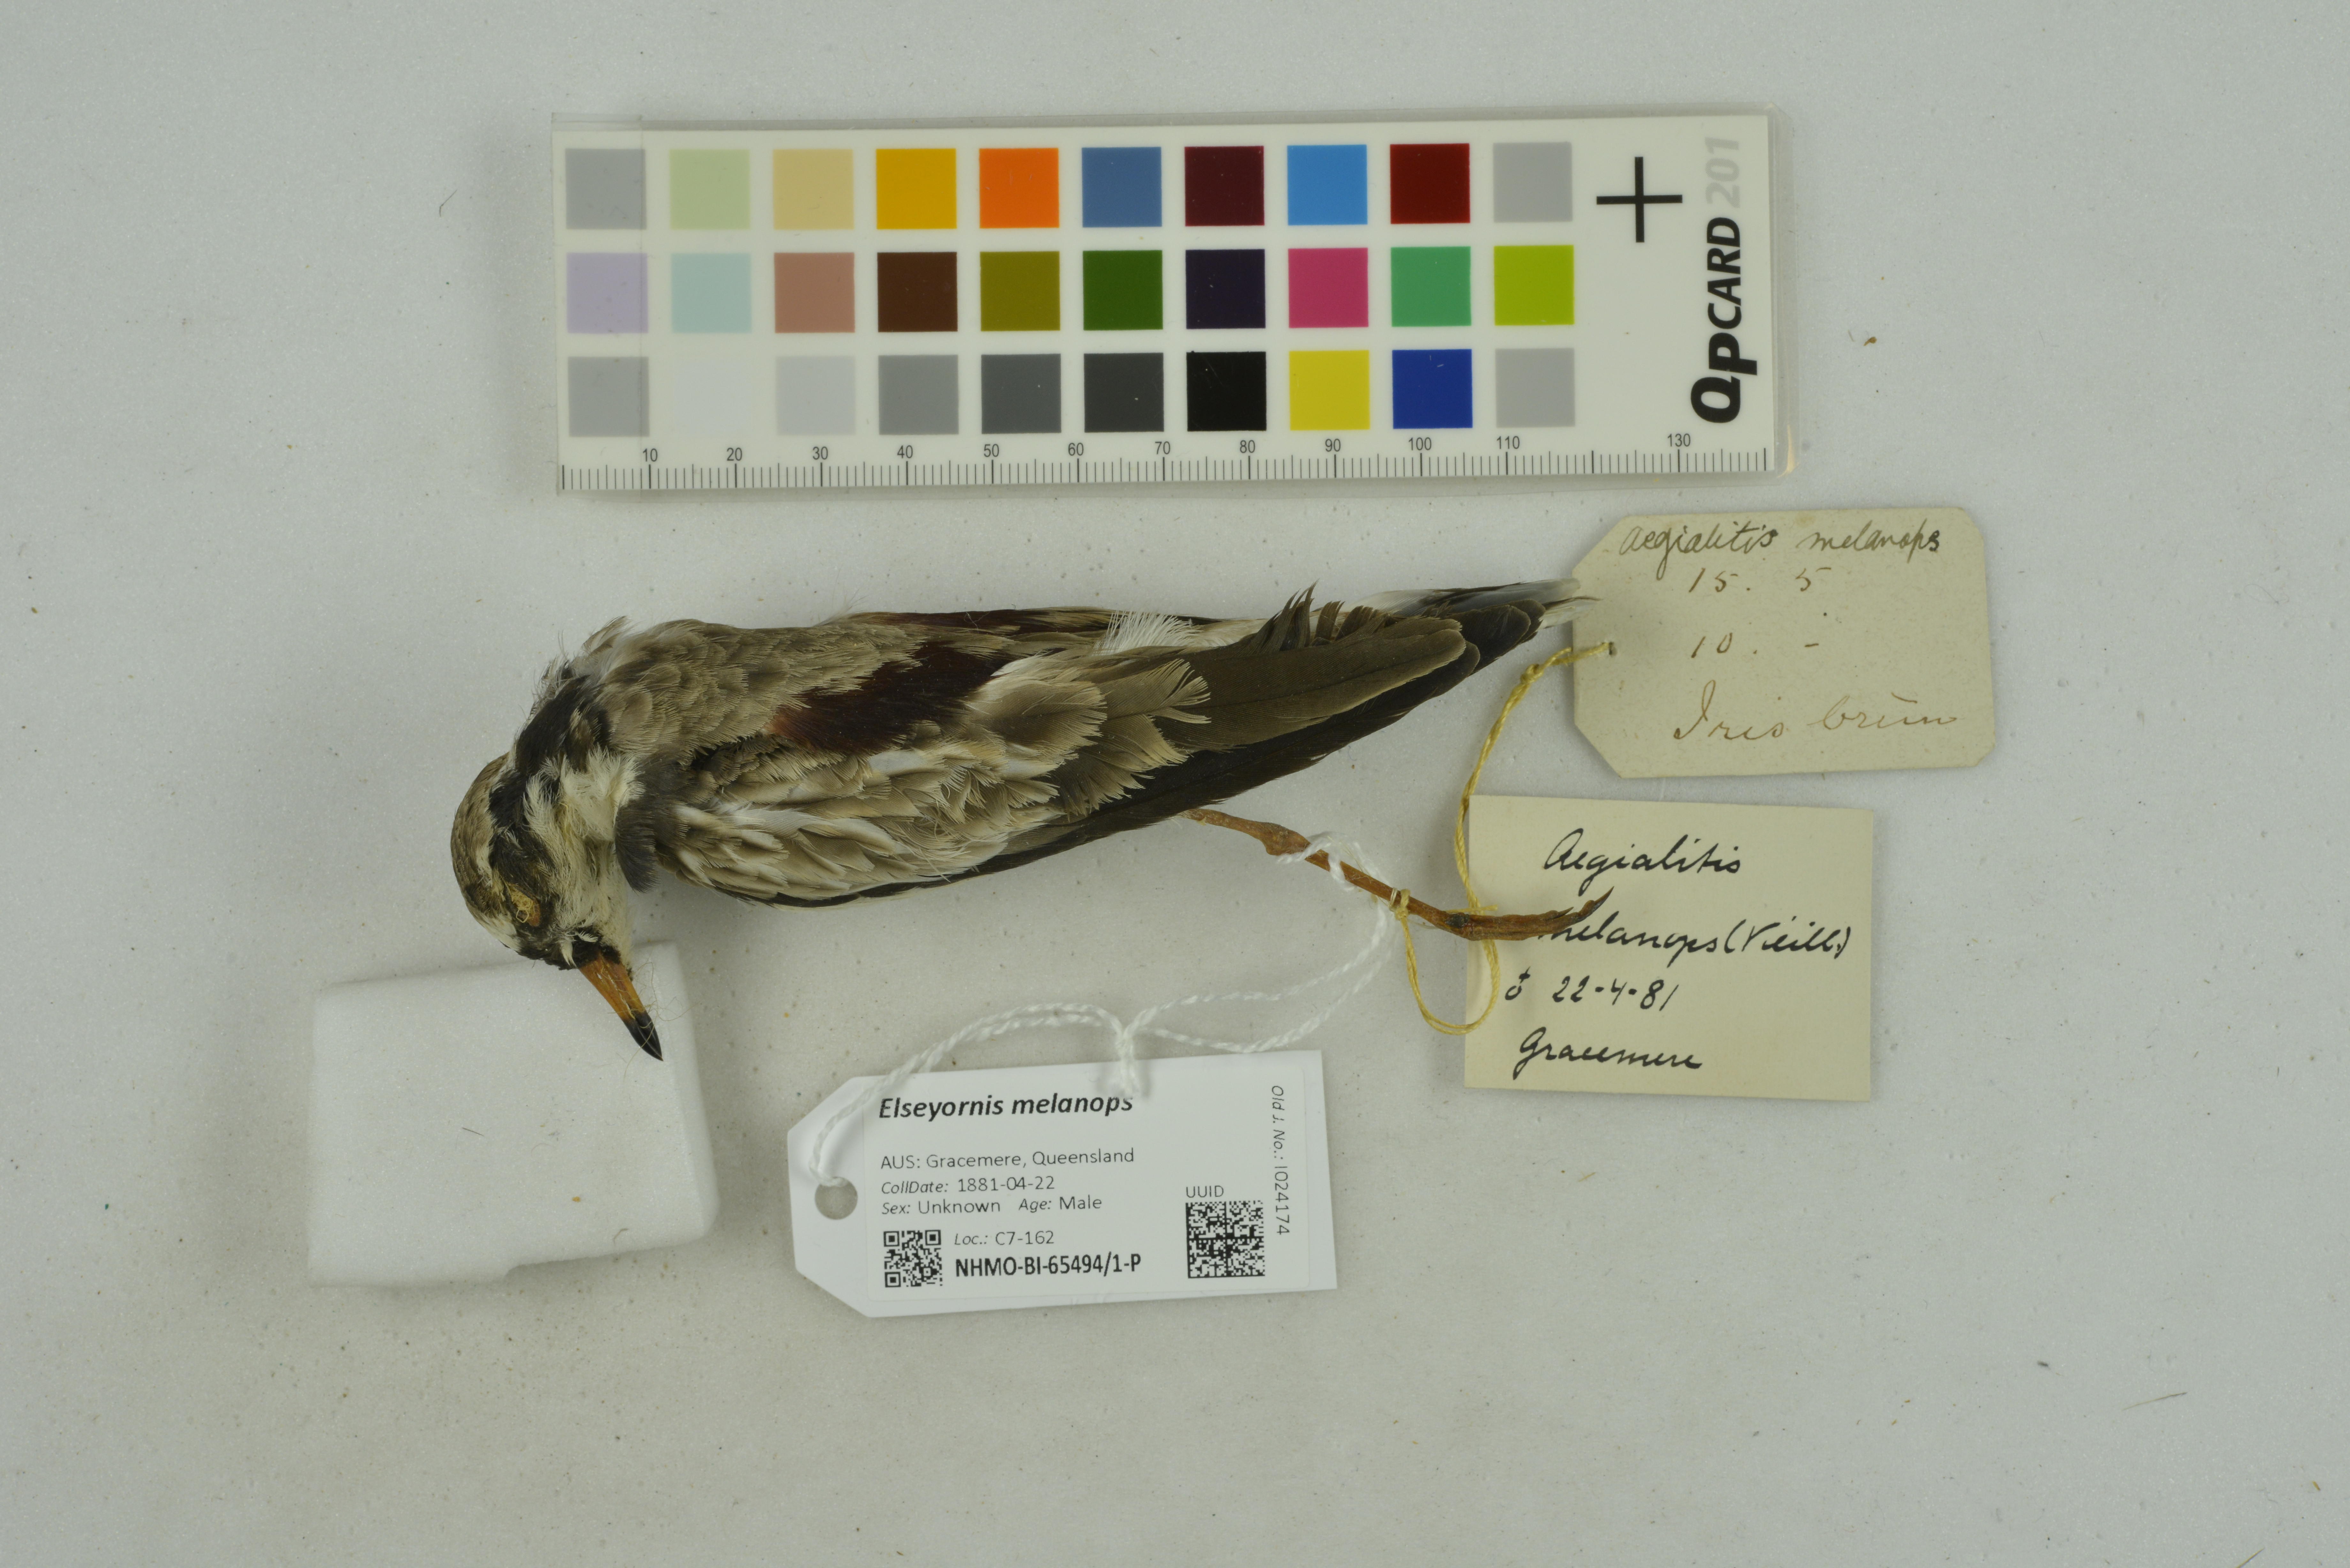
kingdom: Animalia
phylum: Chordata
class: Aves
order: Charadriiformes
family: Charadriidae
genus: Elseyornis
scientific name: Elseyornis melanops
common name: Black-fronted dotterel
